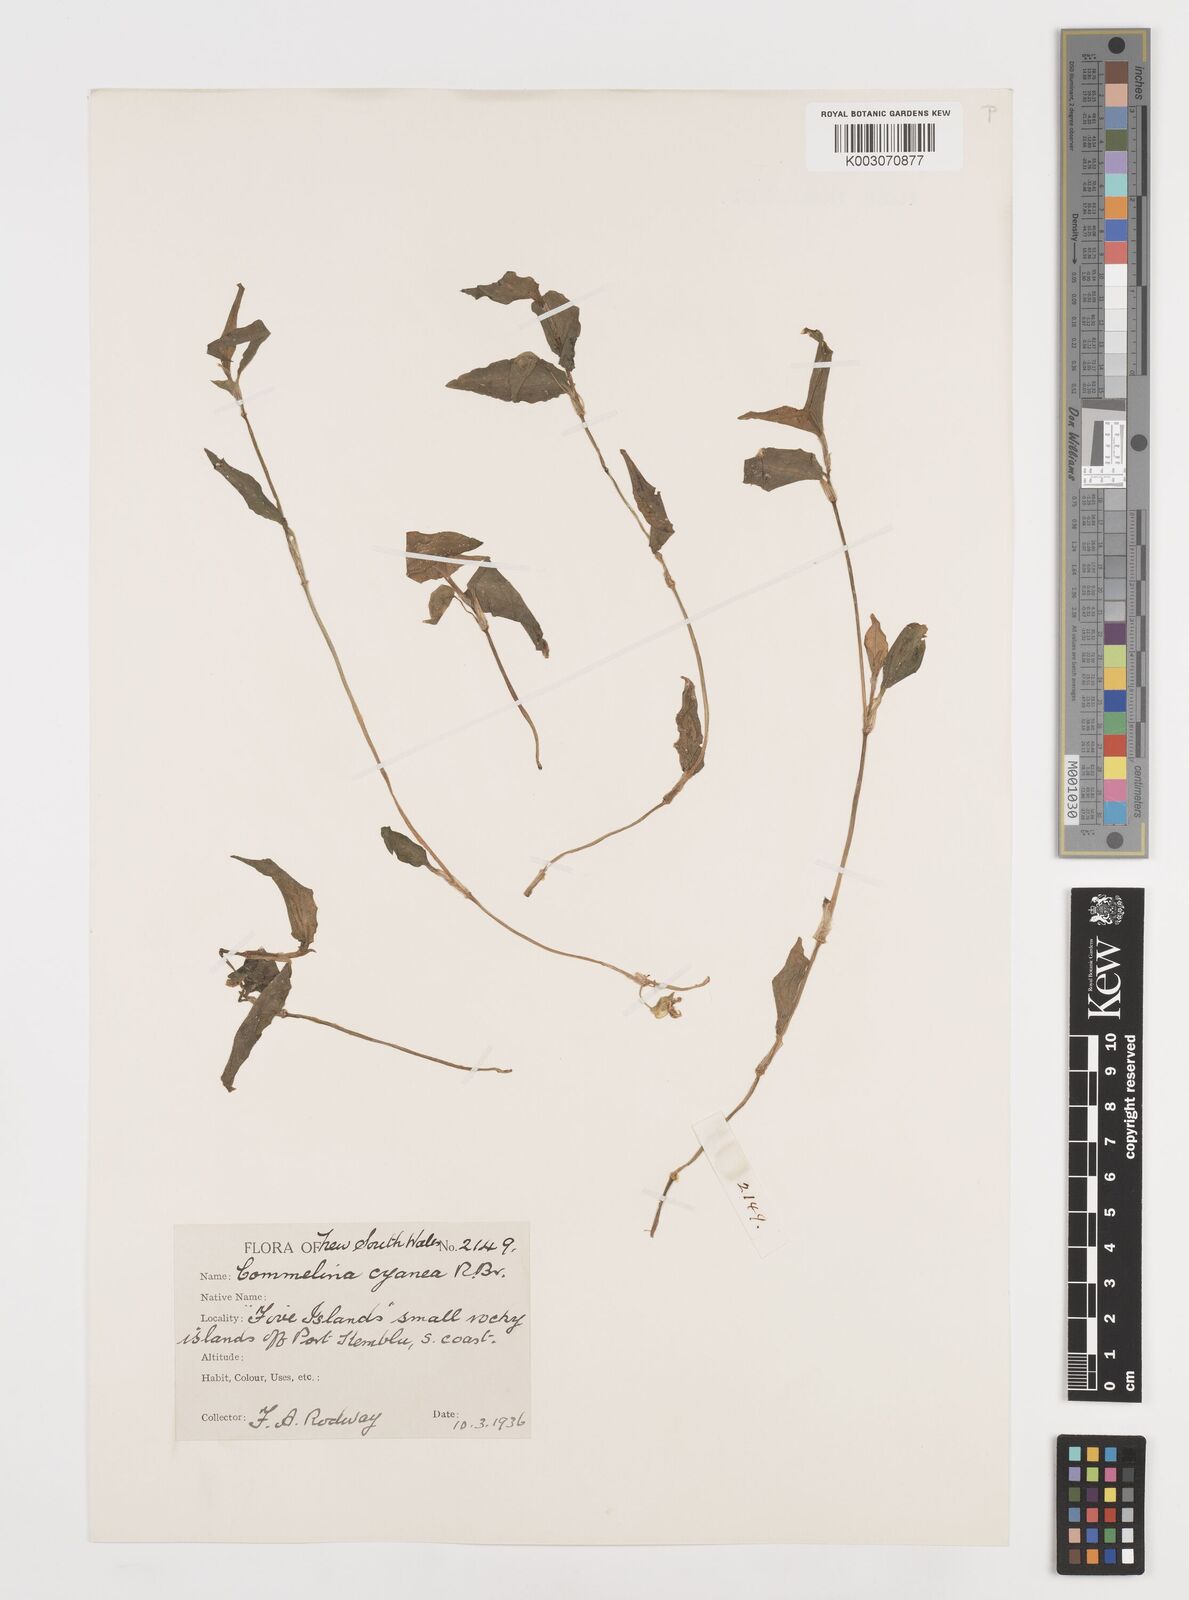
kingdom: Plantae
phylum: Tracheophyta
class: Liliopsida
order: Commelinales
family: Commelinaceae
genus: Commelina
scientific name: Commelina cyanea
